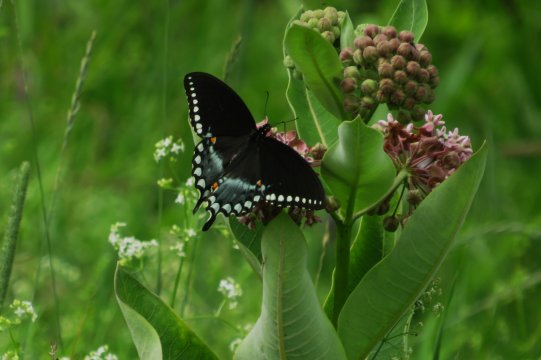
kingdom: Animalia
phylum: Arthropoda
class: Insecta
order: Lepidoptera
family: Papilionidae
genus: Pterourus
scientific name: Pterourus troilus
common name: Spicebush Swallowtail
